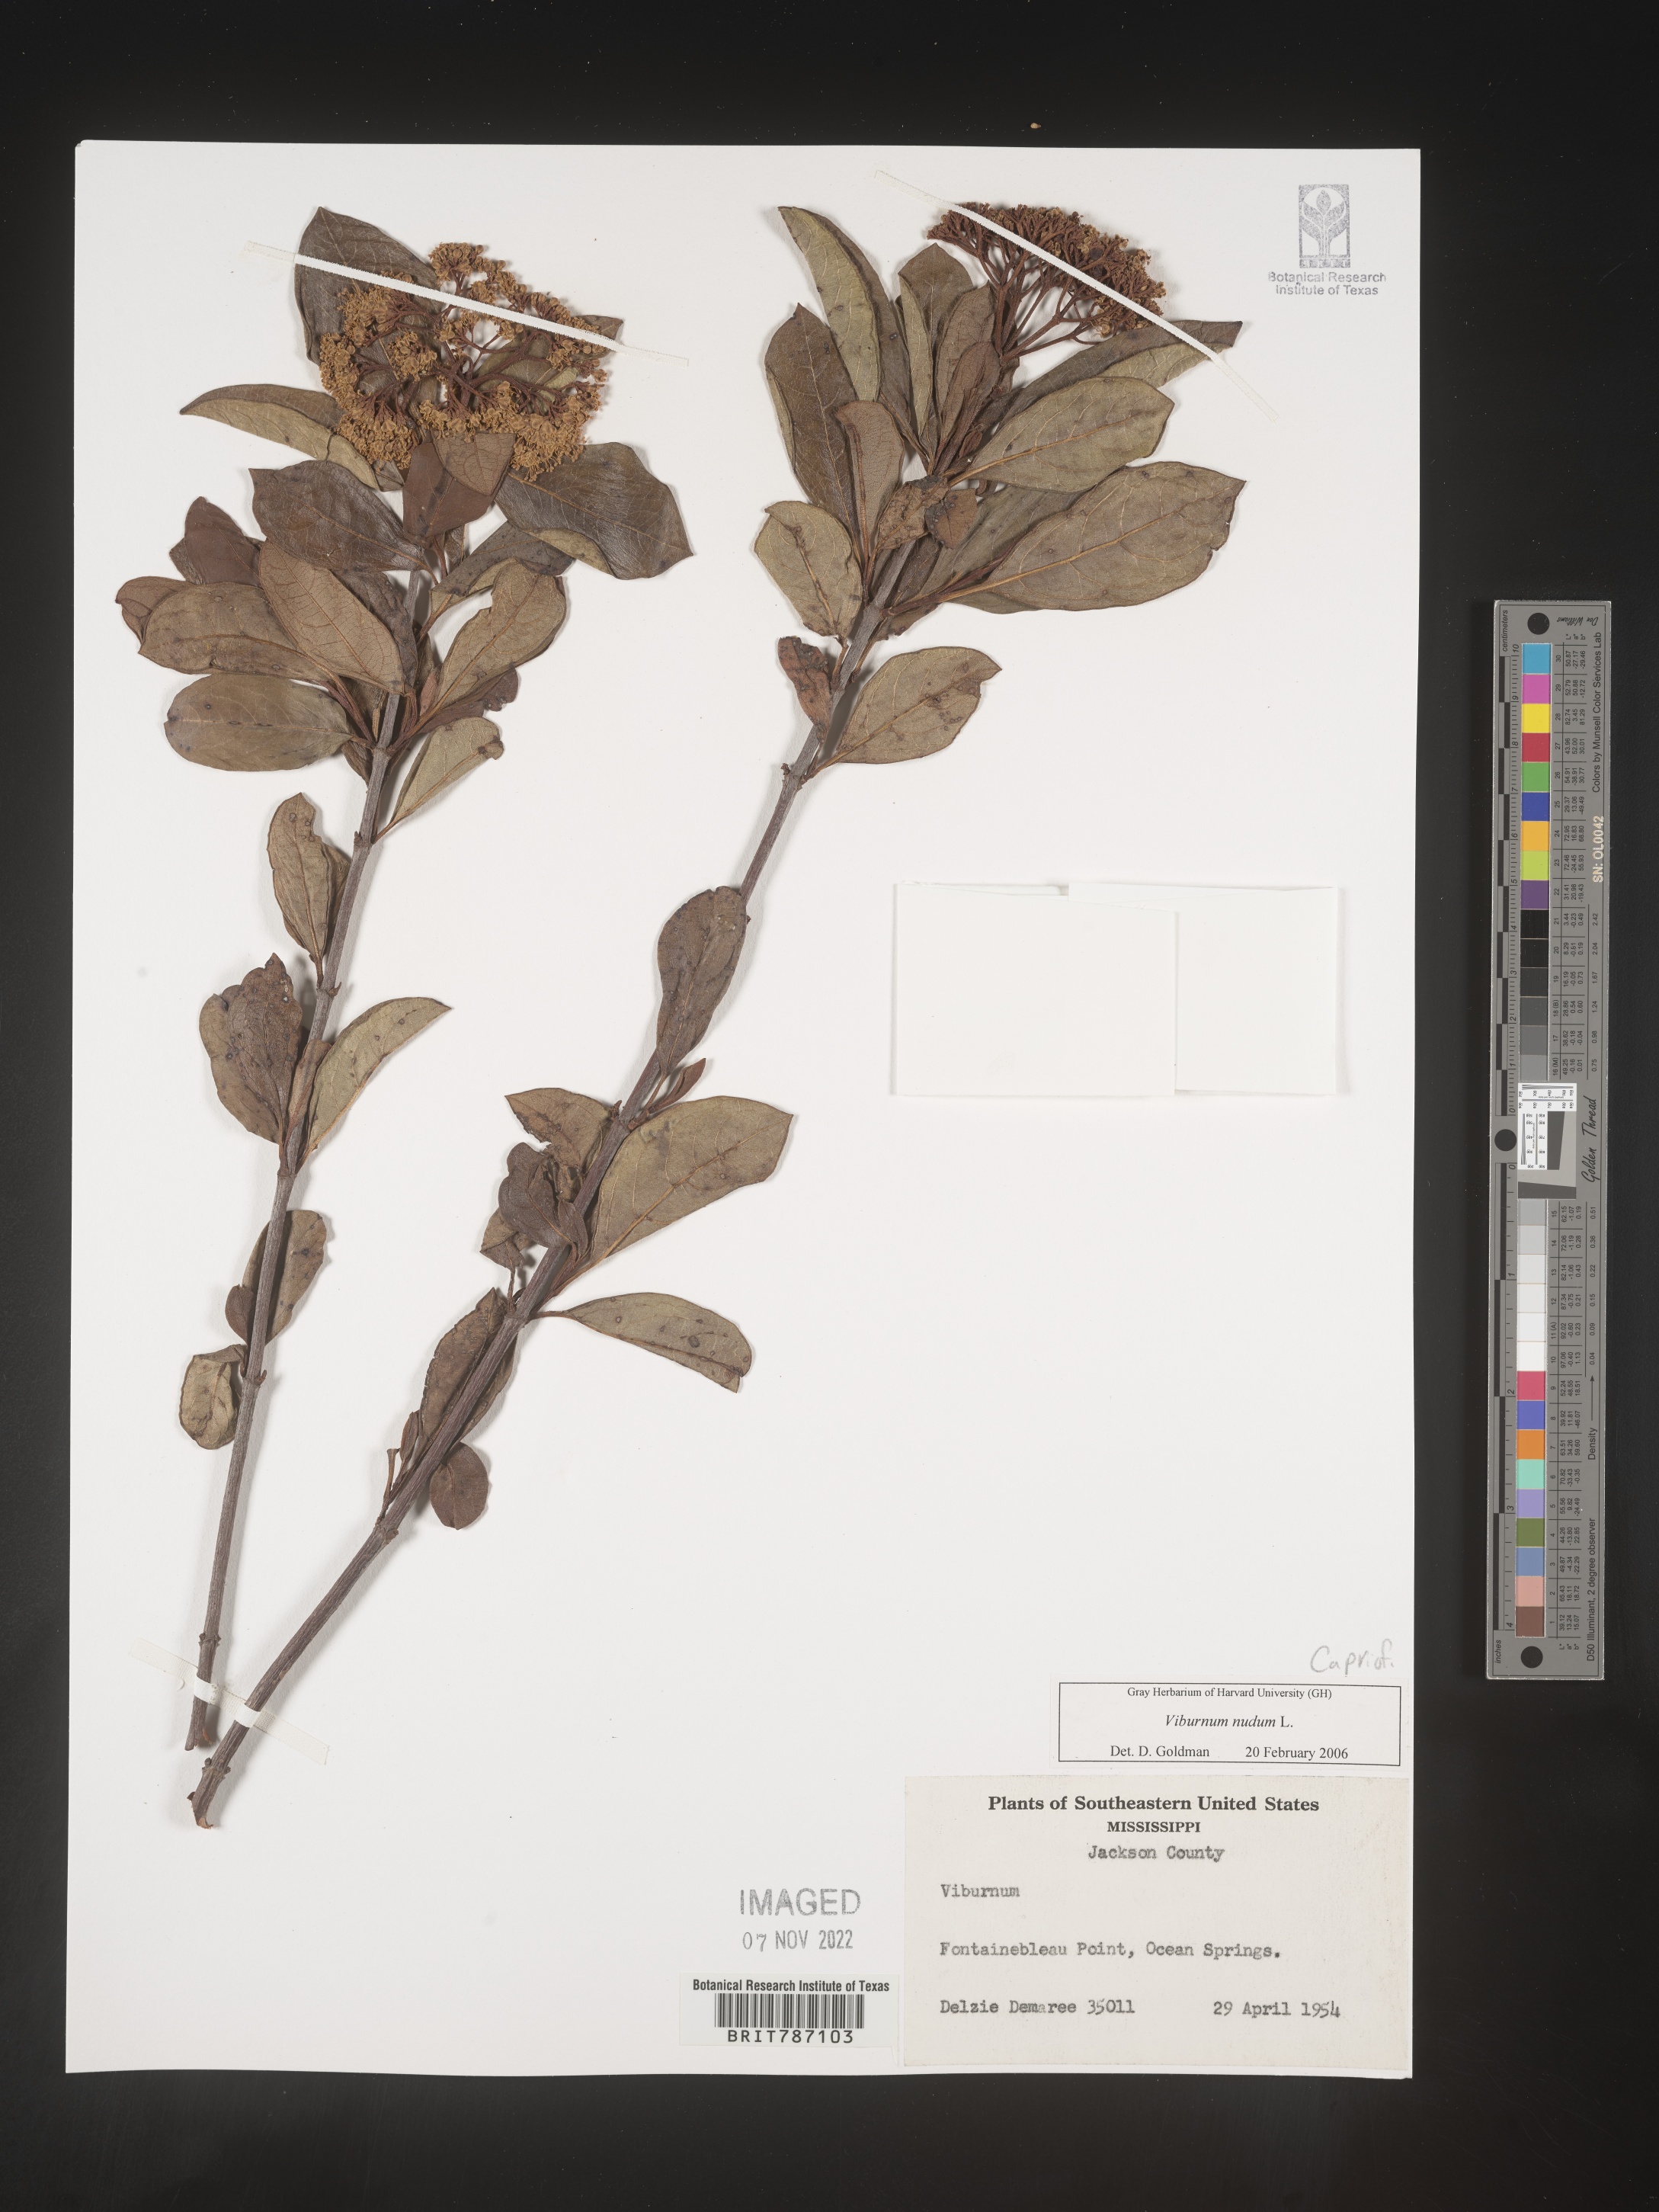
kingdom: Plantae
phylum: Tracheophyta
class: Magnoliopsida
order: Dipsacales
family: Viburnaceae
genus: Viburnum
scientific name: Viburnum nudum
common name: Possum haw
